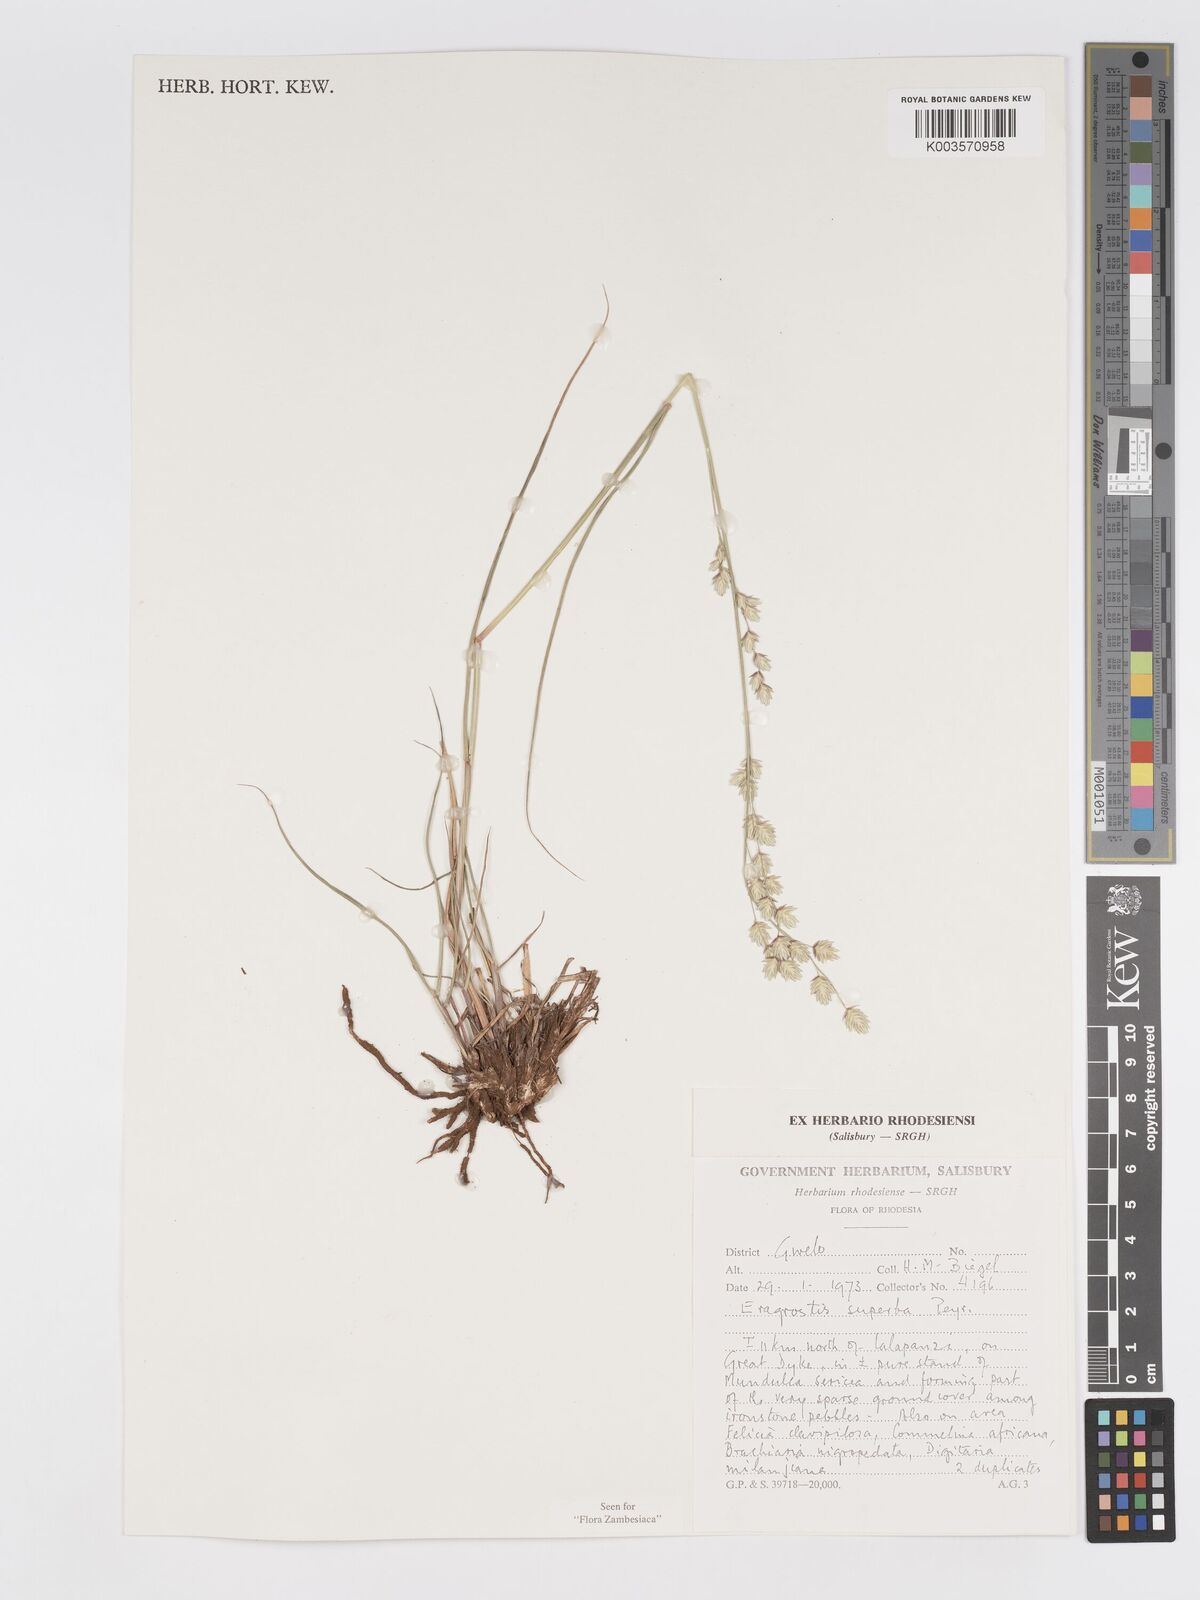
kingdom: Plantae
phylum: Tracheophyta
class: Liliopsida
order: Poales
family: Poaceae
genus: Eragrostis
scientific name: Eragrostis superba
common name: Wilman lovegrass
